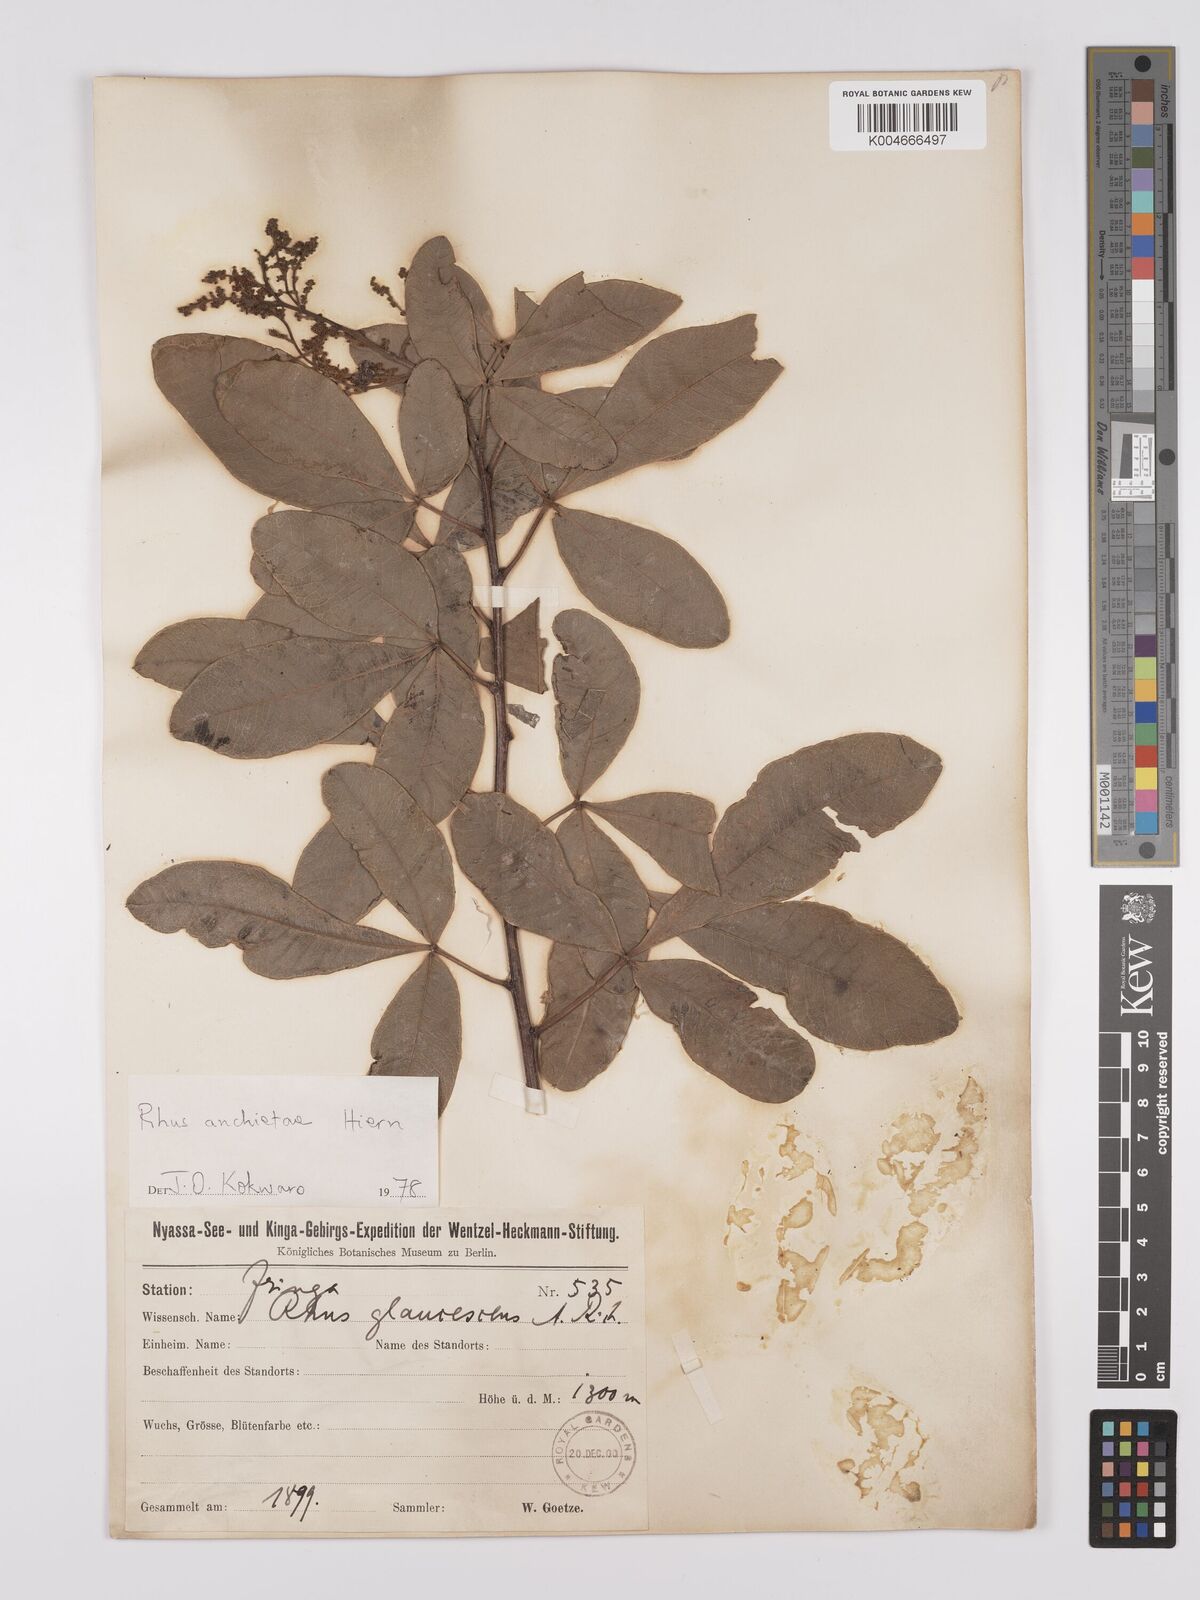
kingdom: Plantae
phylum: Tracheophyta
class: Magnoliopsida
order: Sapindales
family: Anacardiaceae
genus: Searsia
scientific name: Searsia anchietae
